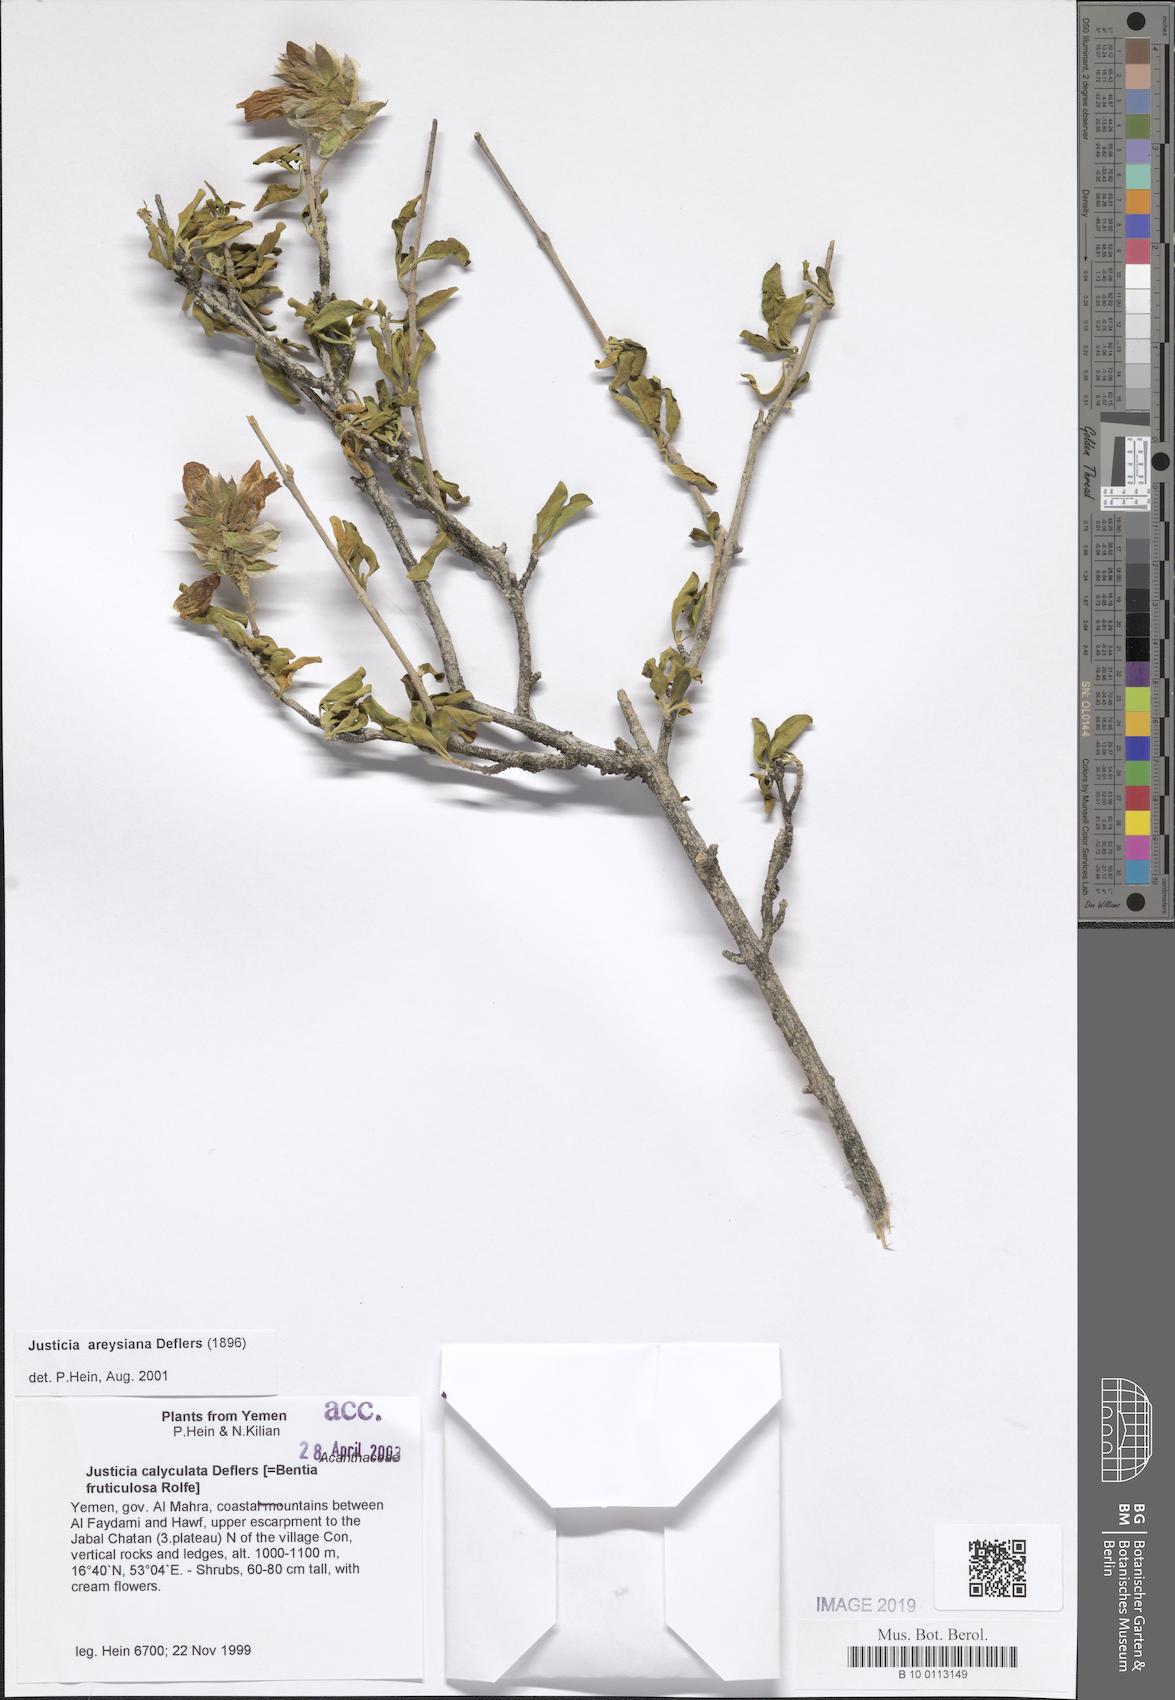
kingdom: Plantae
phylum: Tracheophyta
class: Magnoliopsida
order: Lamiales
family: Acanthaceae
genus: Justicia
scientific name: Justicia areysiana
